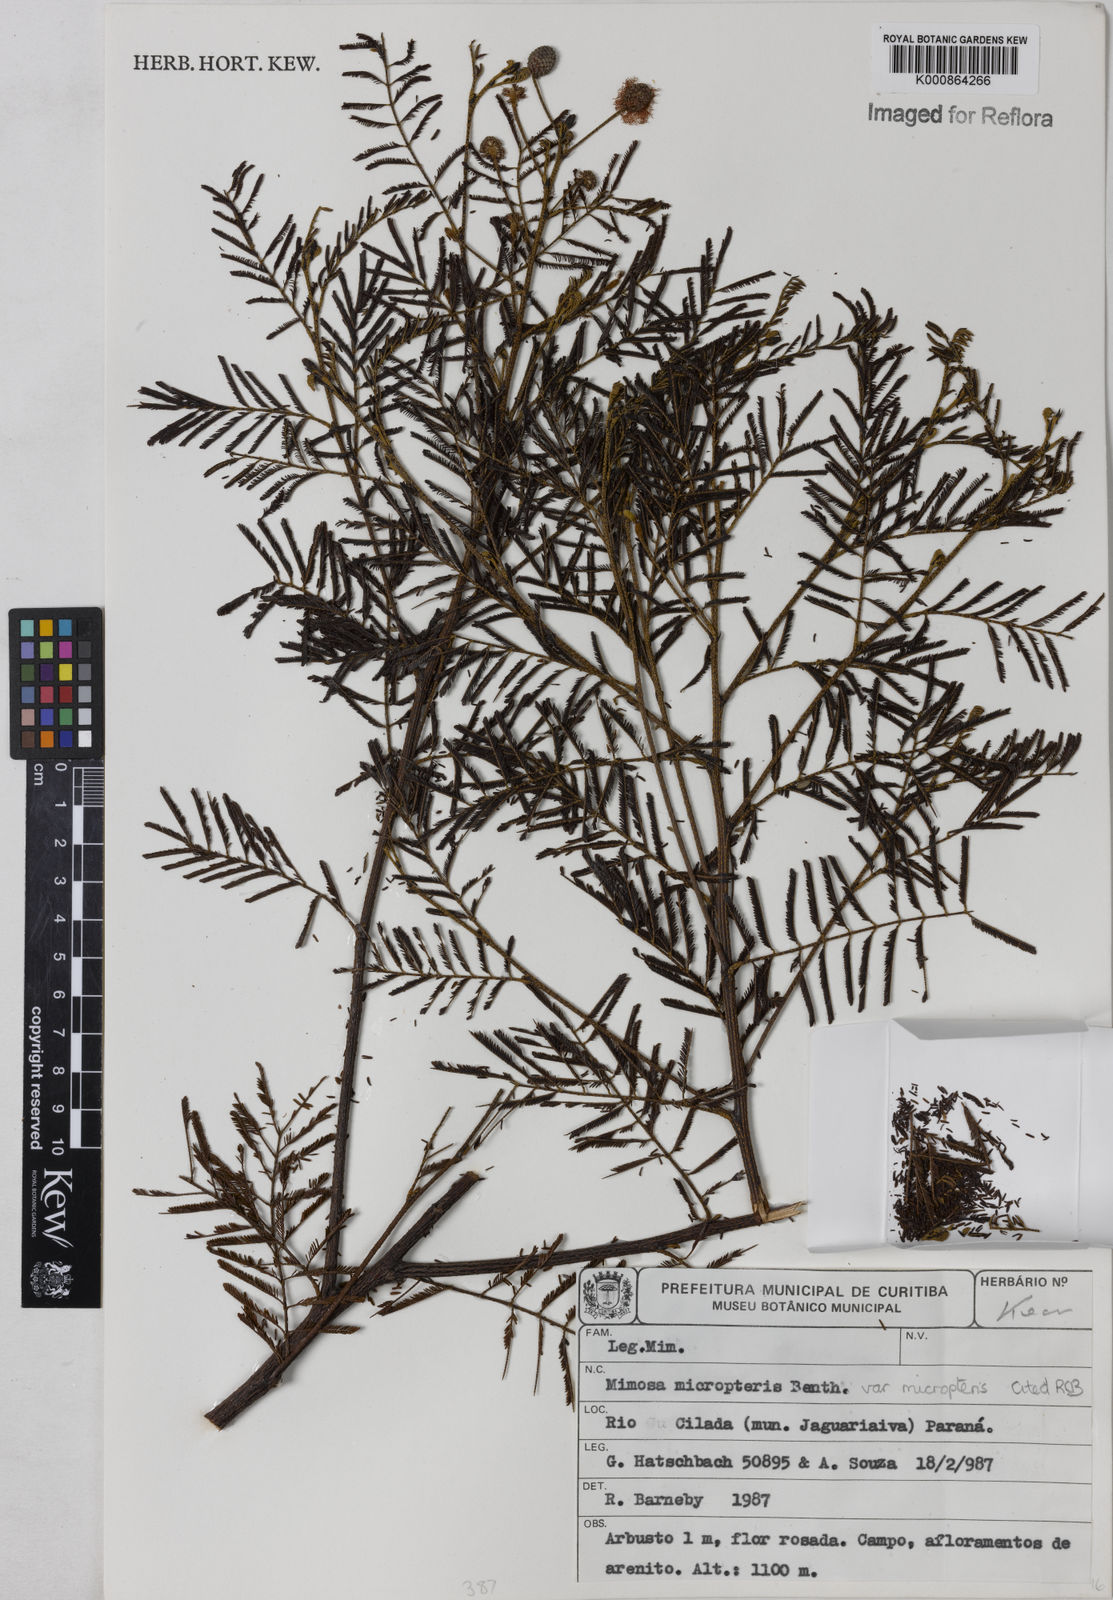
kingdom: Plantae
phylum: Tracheophyta
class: Magnoliopsida
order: Fabales
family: Fabaceae
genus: Mimosa
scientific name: Mimosa micropteris
